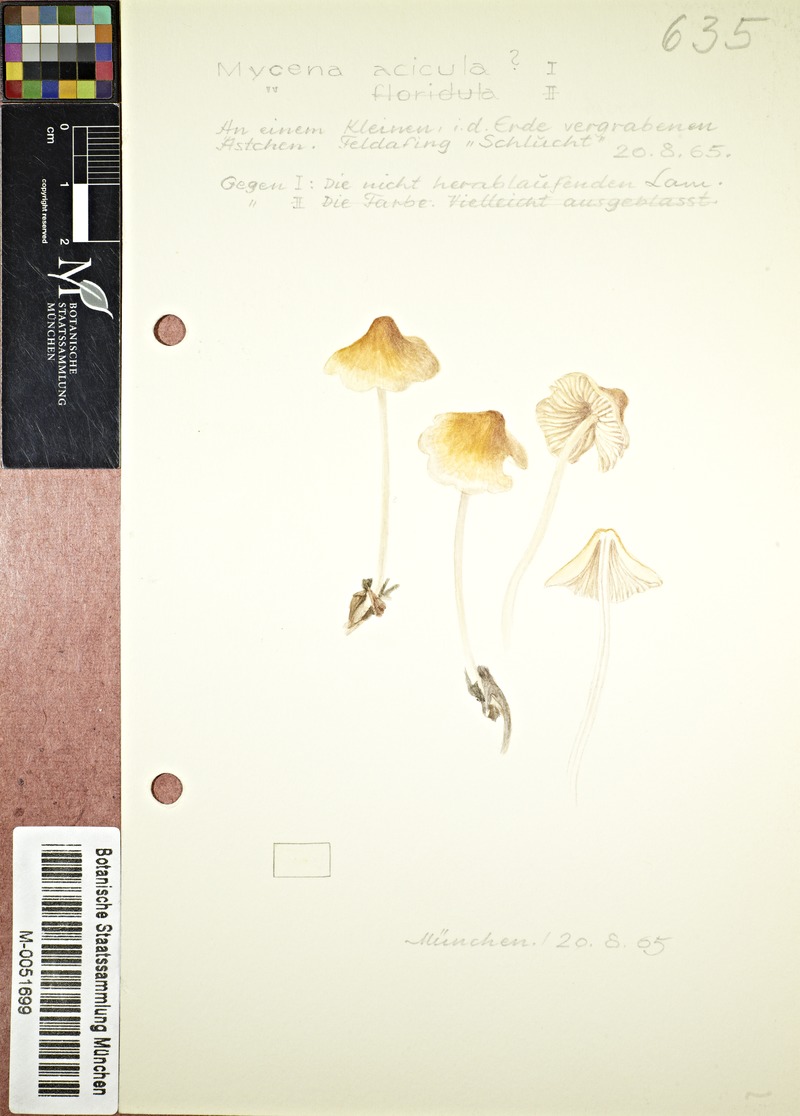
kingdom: Fungi
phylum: Basidiomycota
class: Agaricomycetes
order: Agaricales
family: Mycenaceae
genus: Mycena
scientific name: Mycena acicula
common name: Orange bonnet
